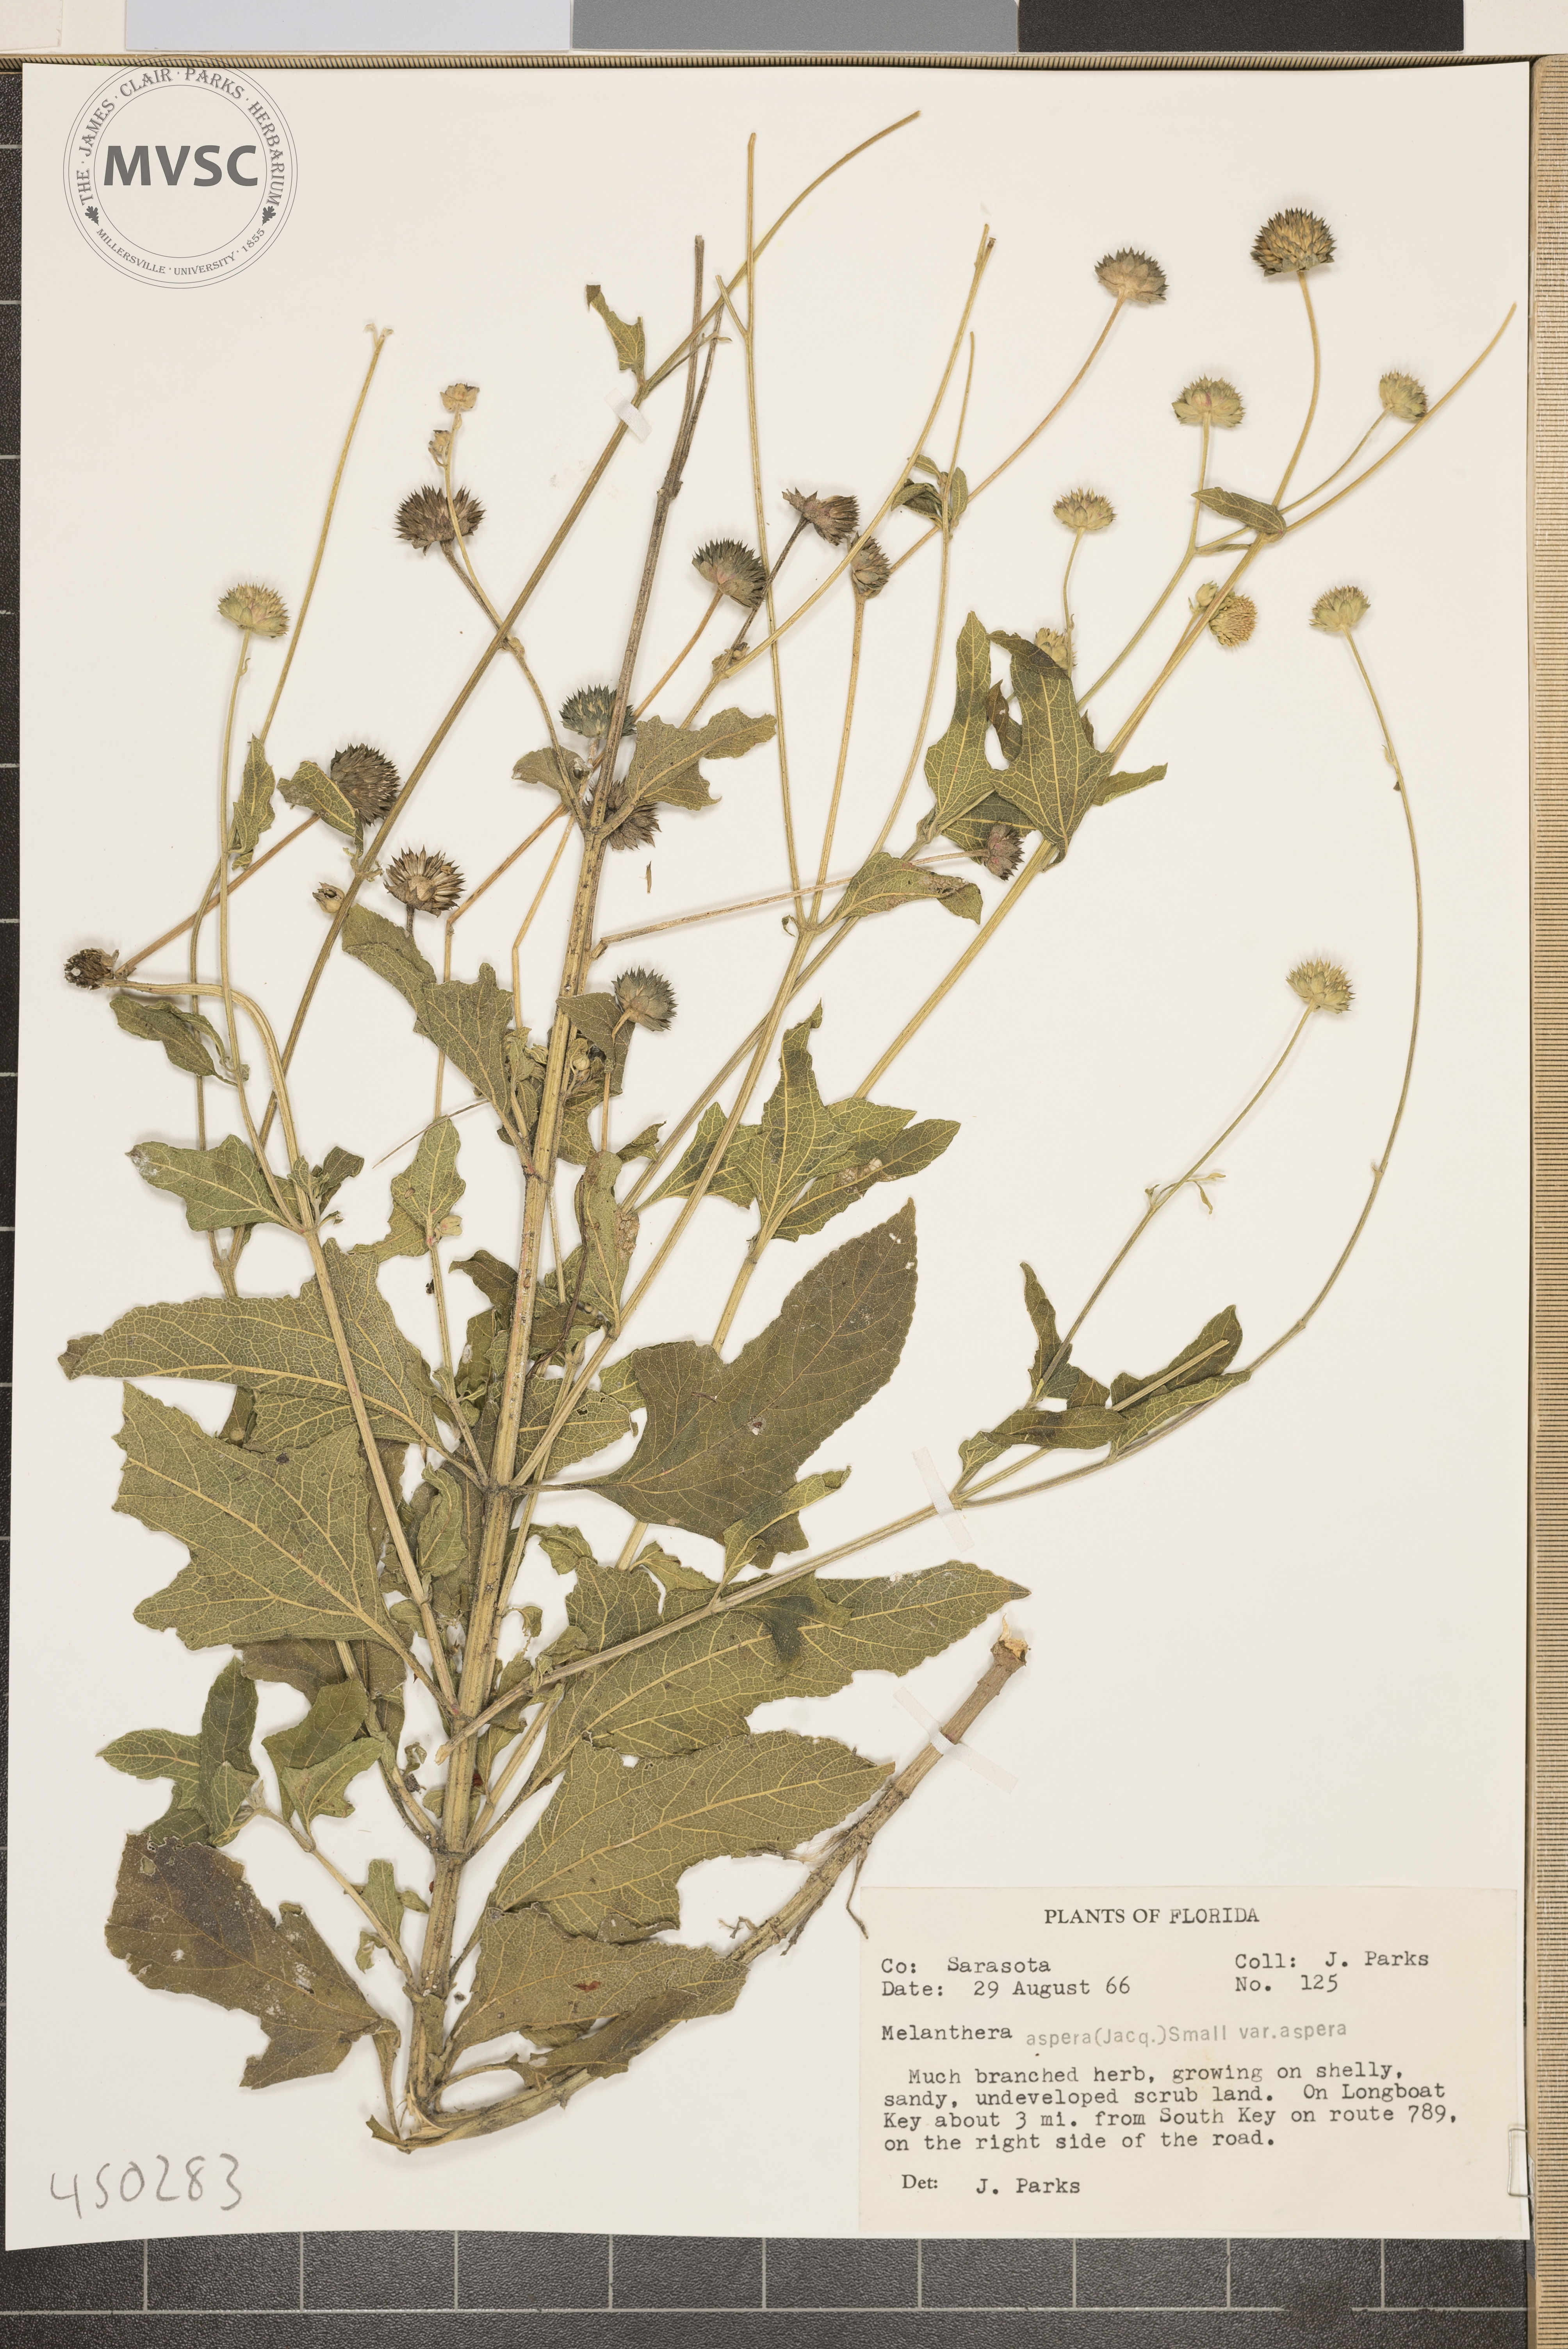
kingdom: Plantae
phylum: Tracheophyta
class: Magnoliopsida
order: Asterales
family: Asteraceae
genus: Melanthera
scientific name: Melanthera aspera
